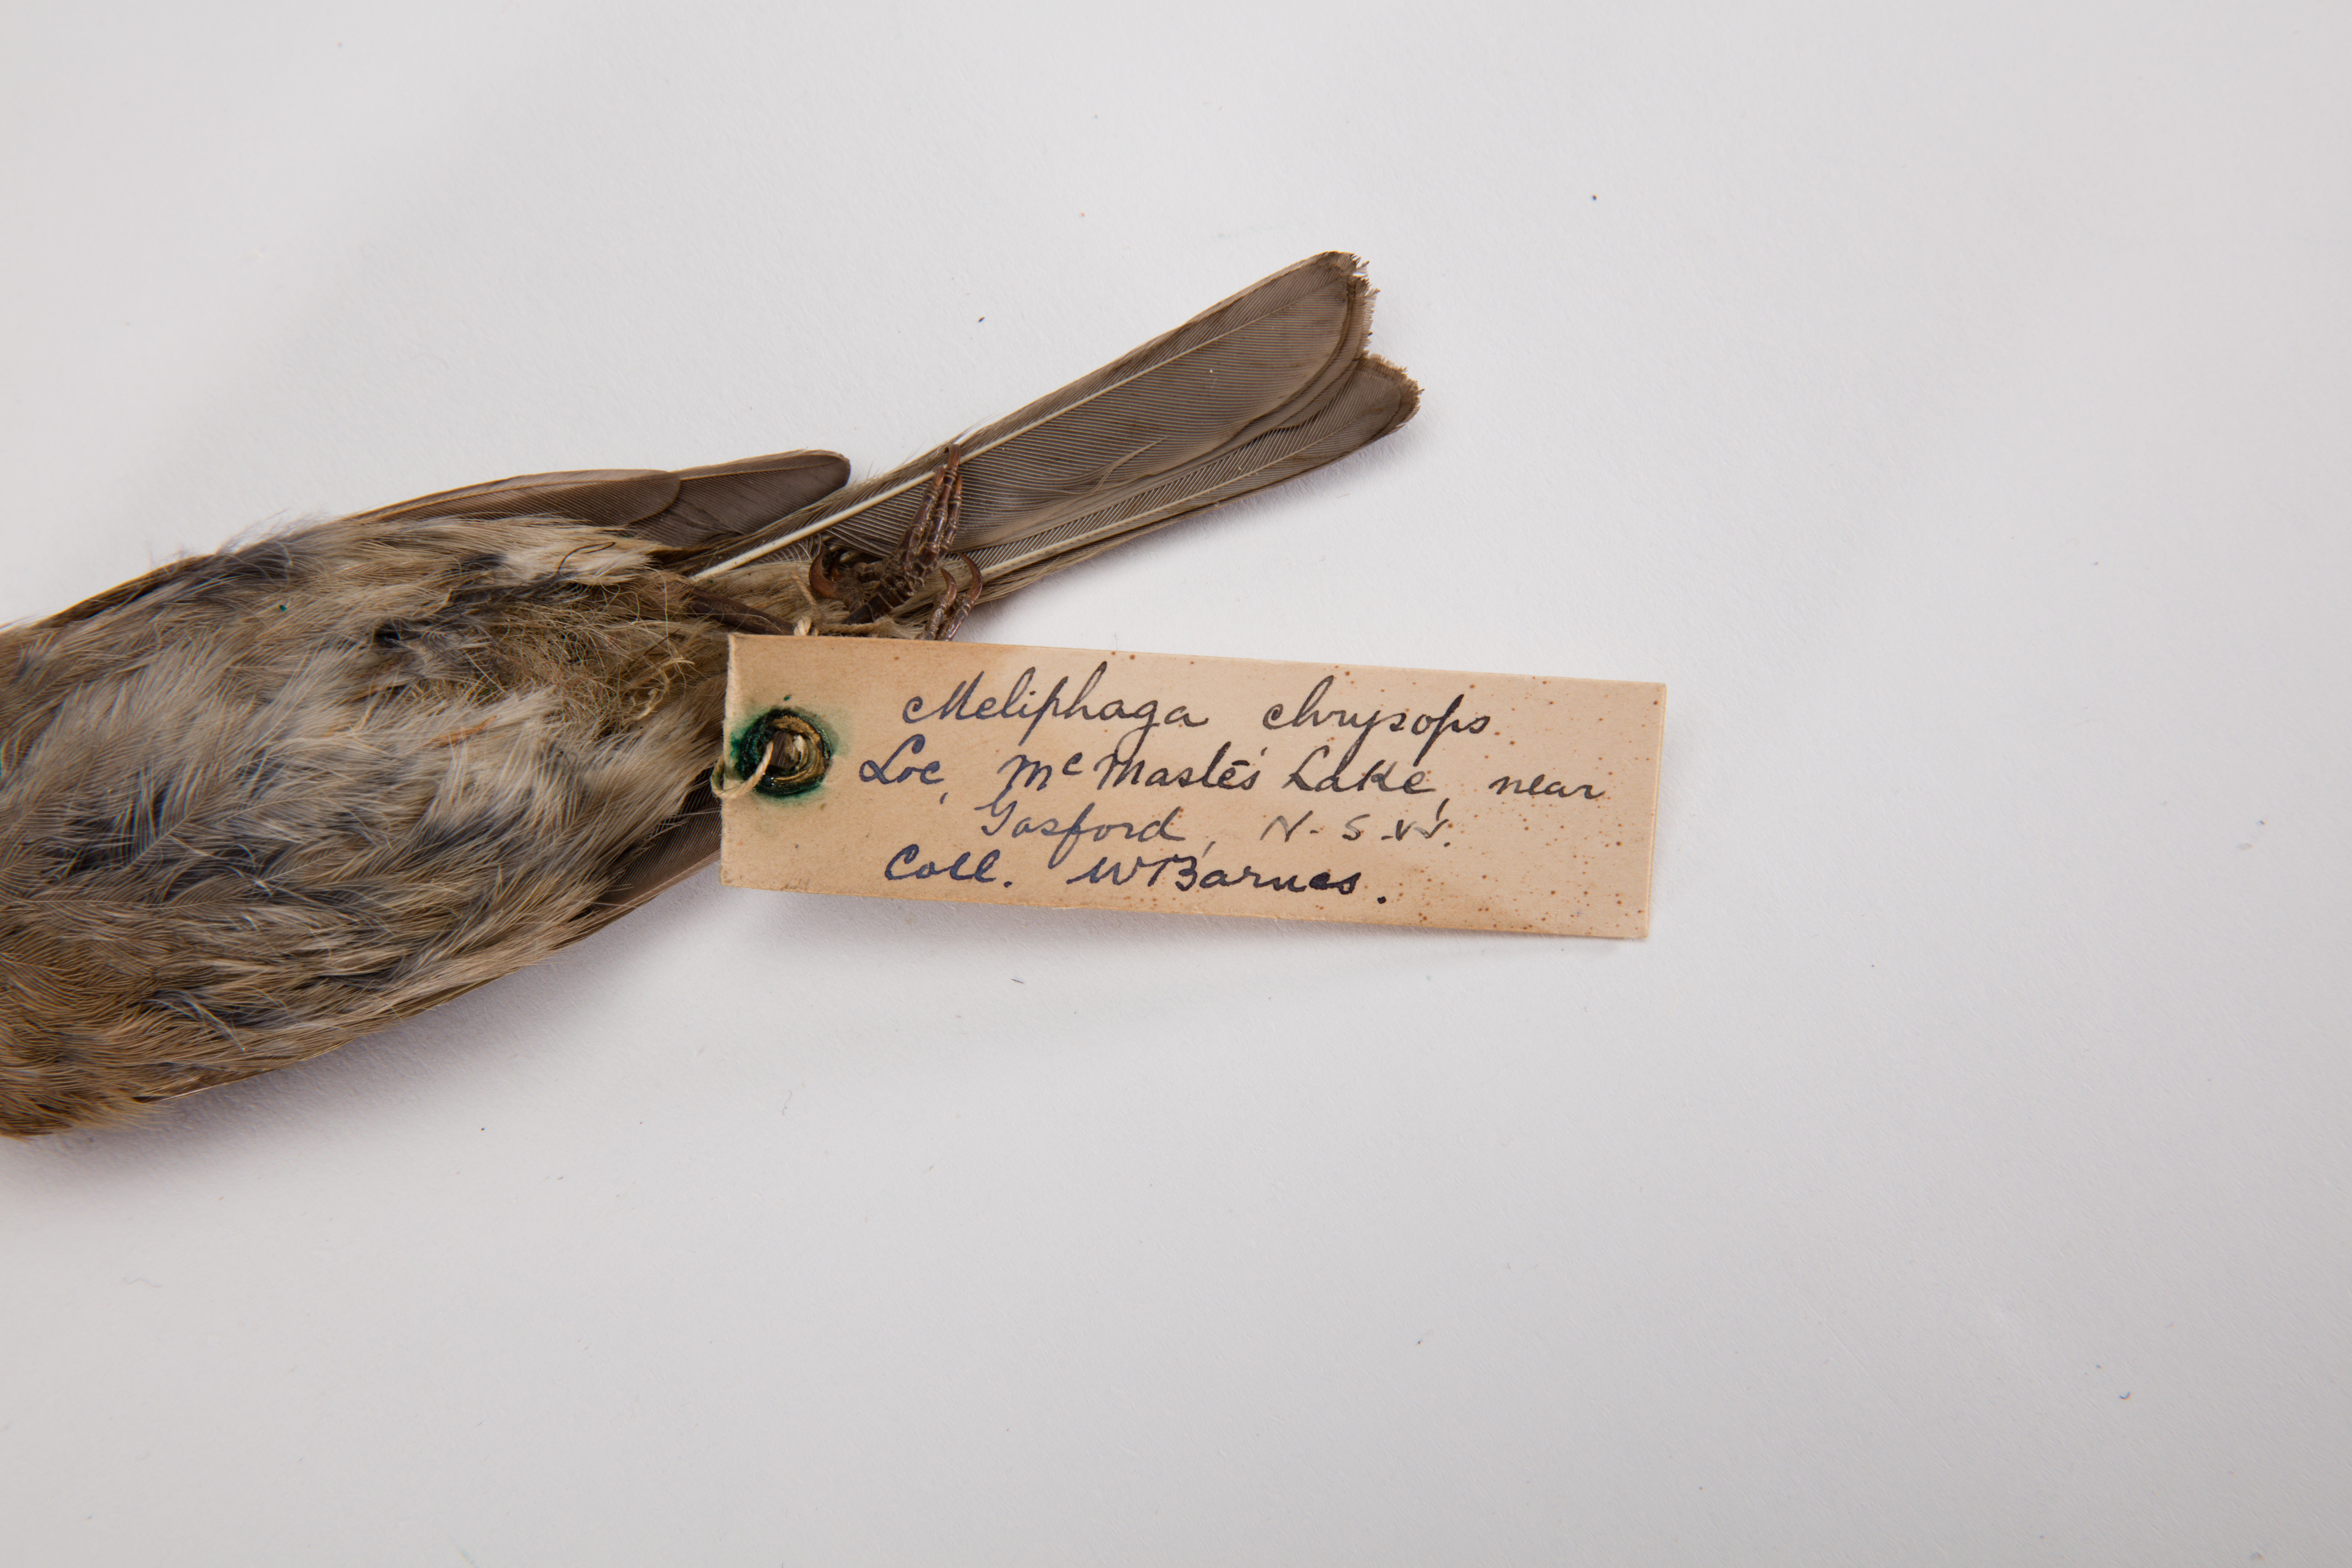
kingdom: Animalia
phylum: Chordata
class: Aves
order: Passeriformes
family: Meliphagidae
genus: Caligavis
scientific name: Caligavis chrysops
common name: Yellow-faced honeyeater
